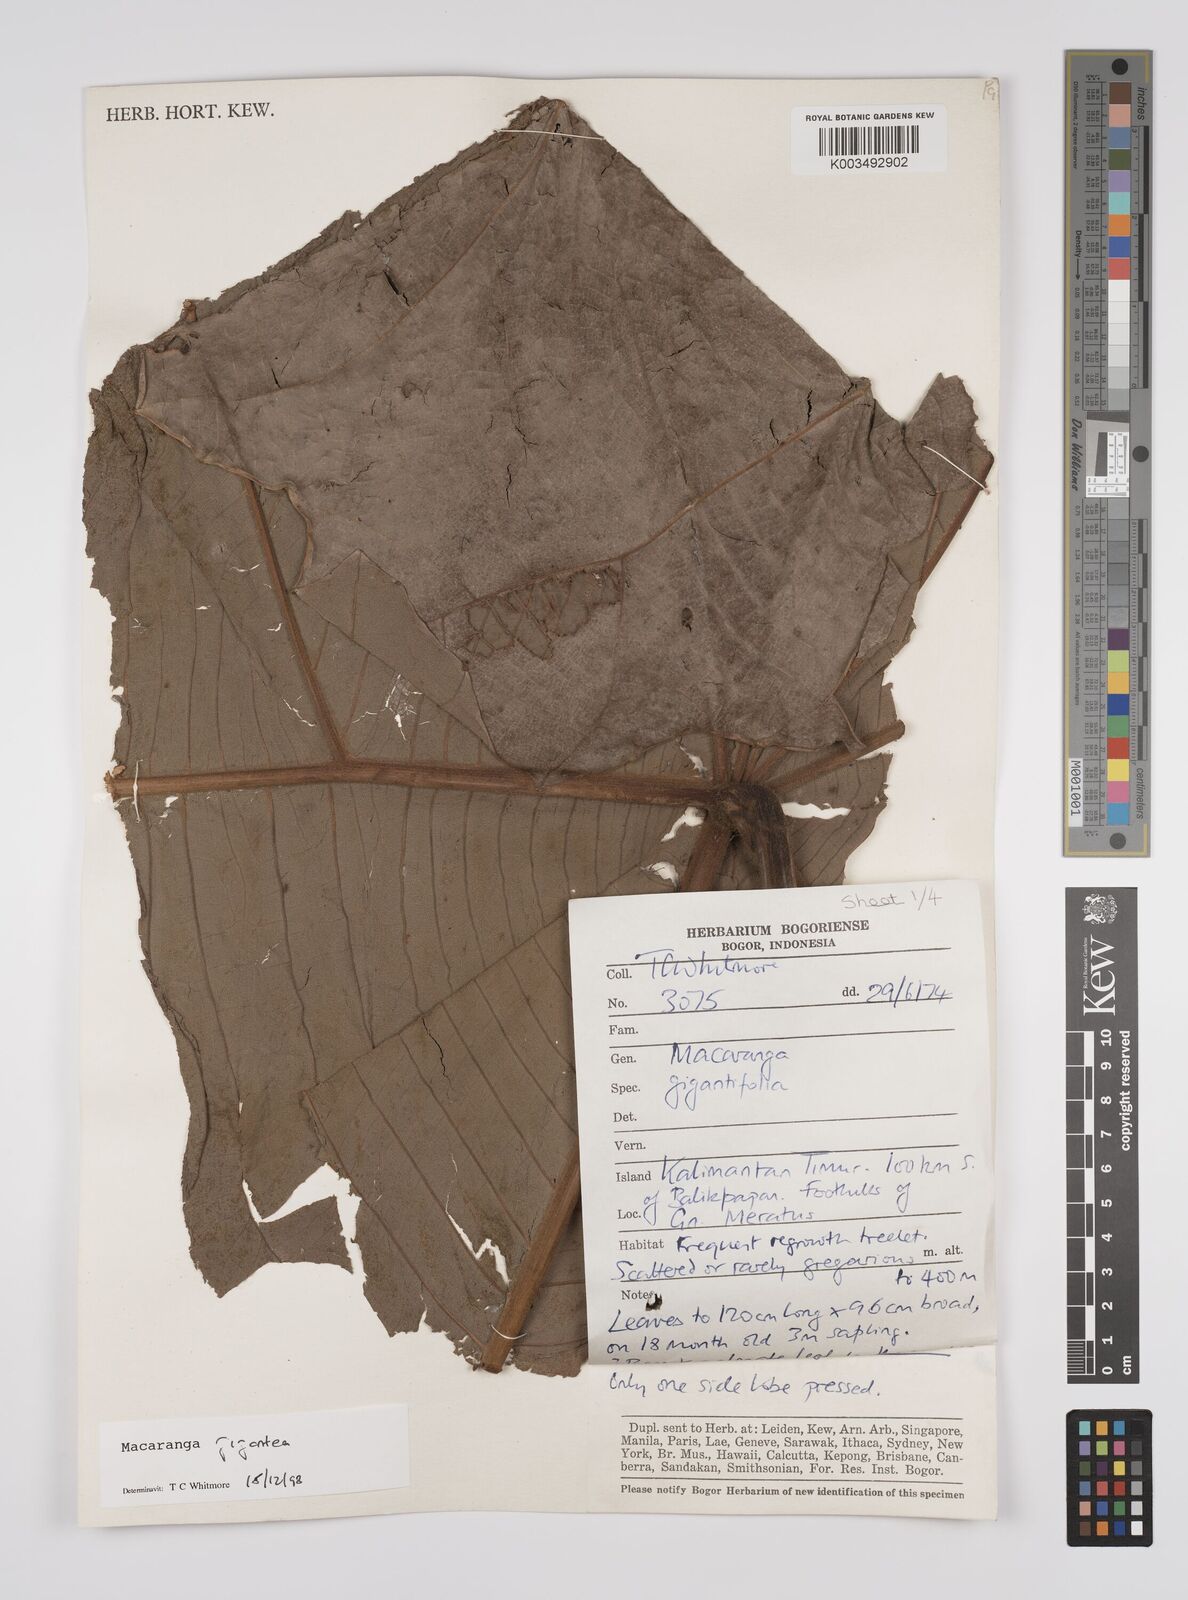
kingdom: Plantae
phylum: Tracheophyta
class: Magnoliopsida
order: Malpighiales
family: Euphorbiaceae
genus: Macaranga
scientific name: Macaranga gigantea
